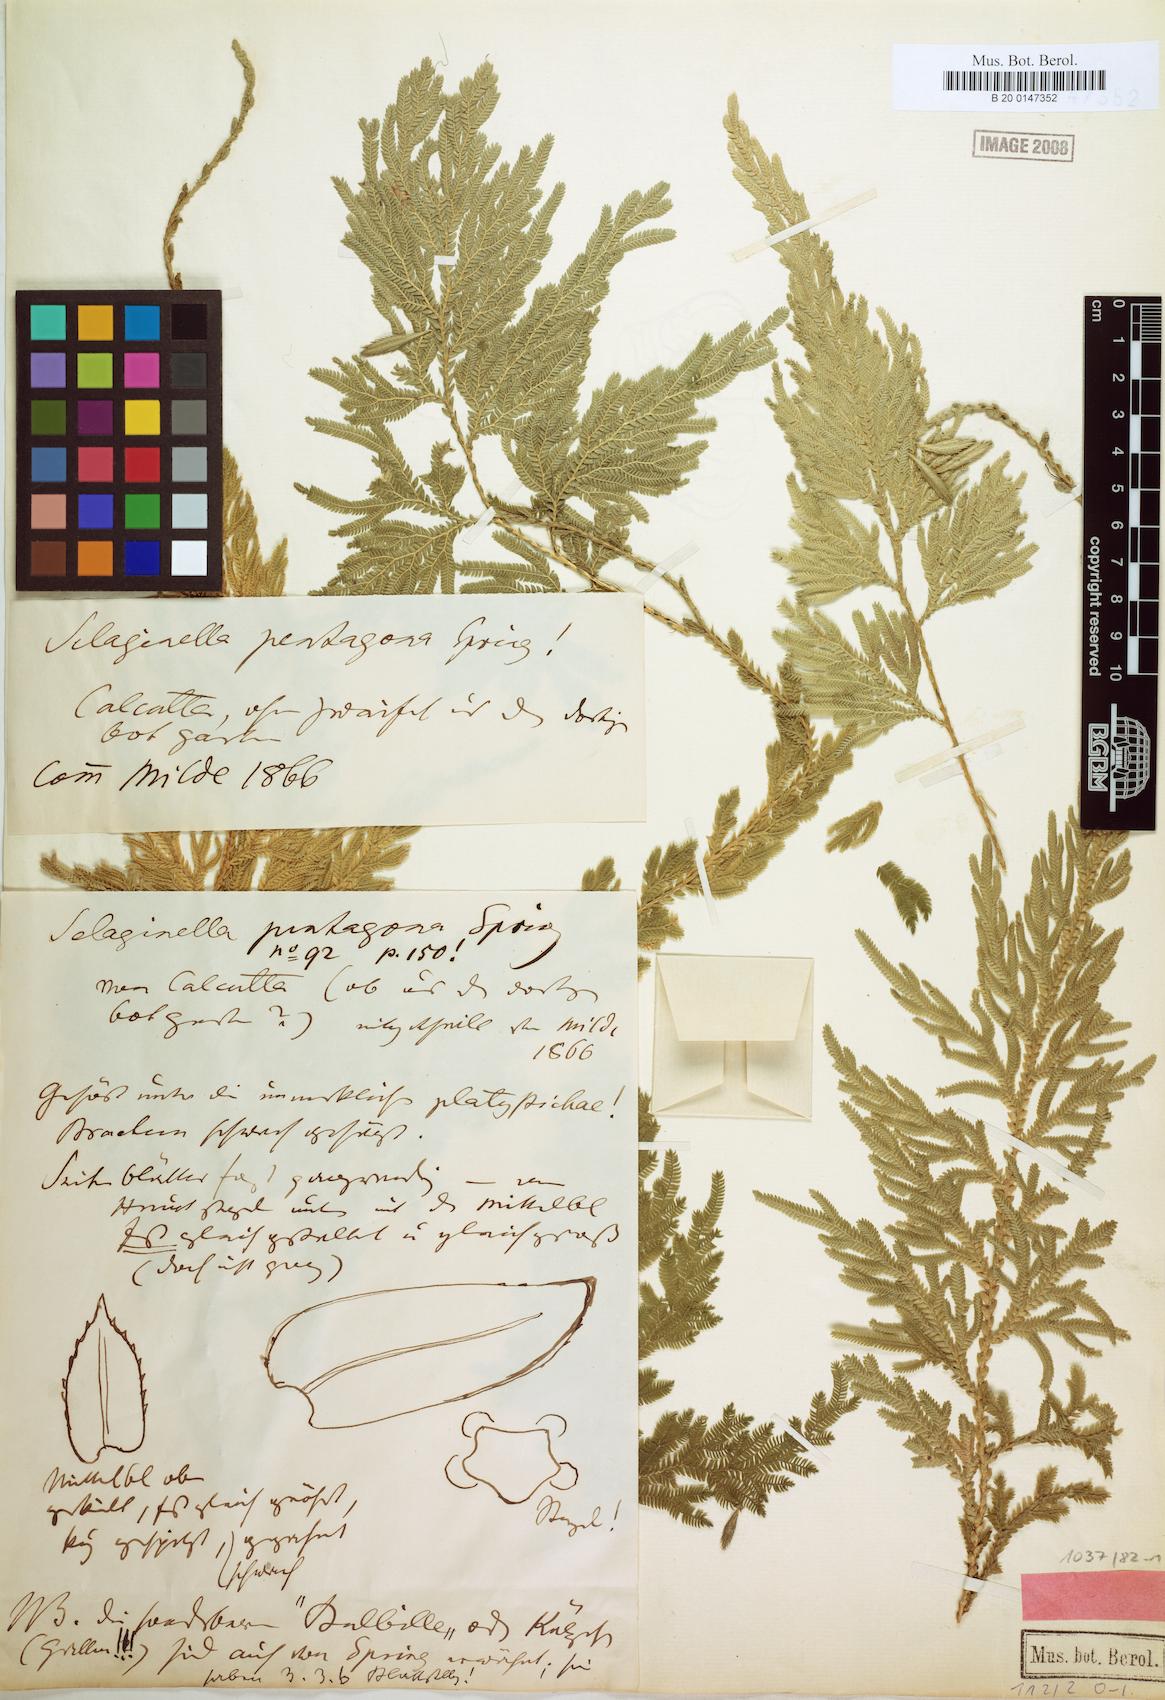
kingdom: Plantae
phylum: Tracheophyta
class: Lycopodiopsida
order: Selaginellales
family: Selaginellaceae
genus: Selaginella
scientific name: Selaginella pentagona
